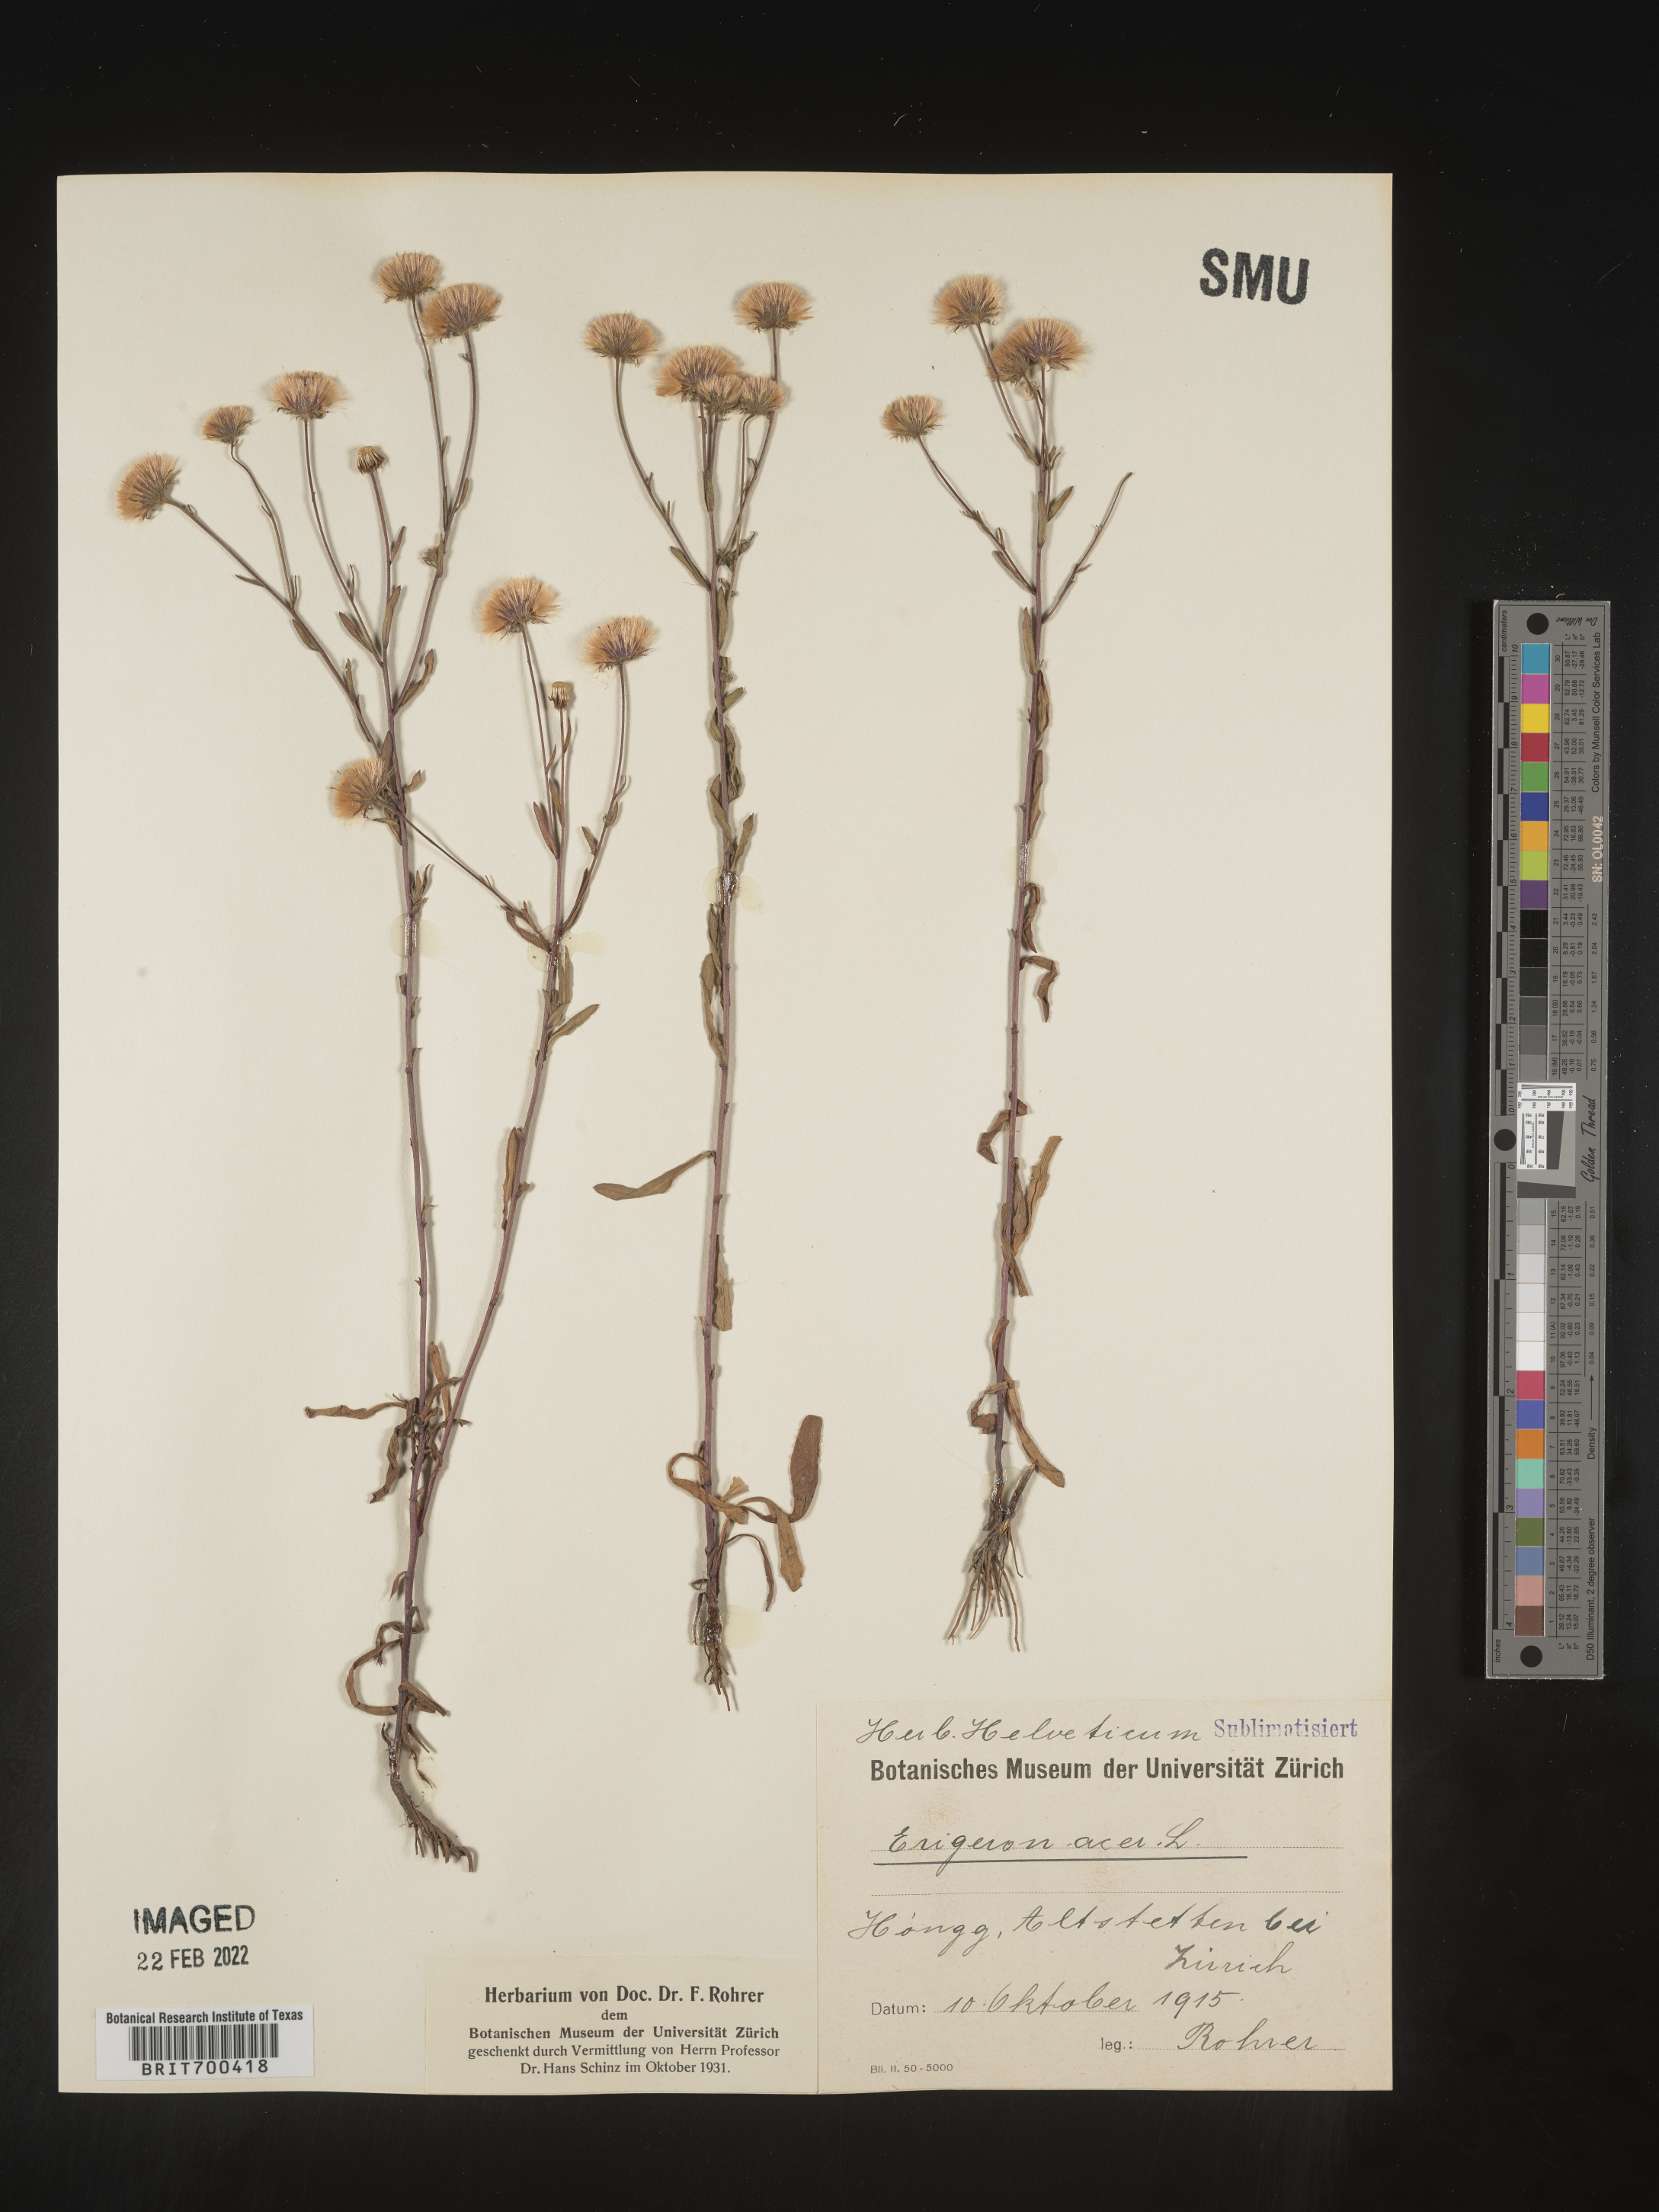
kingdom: Plantae
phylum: Tracheophyta
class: Magnoliopsida
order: Asterales
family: Asteraceae
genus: Erigeron
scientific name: Erigeron
